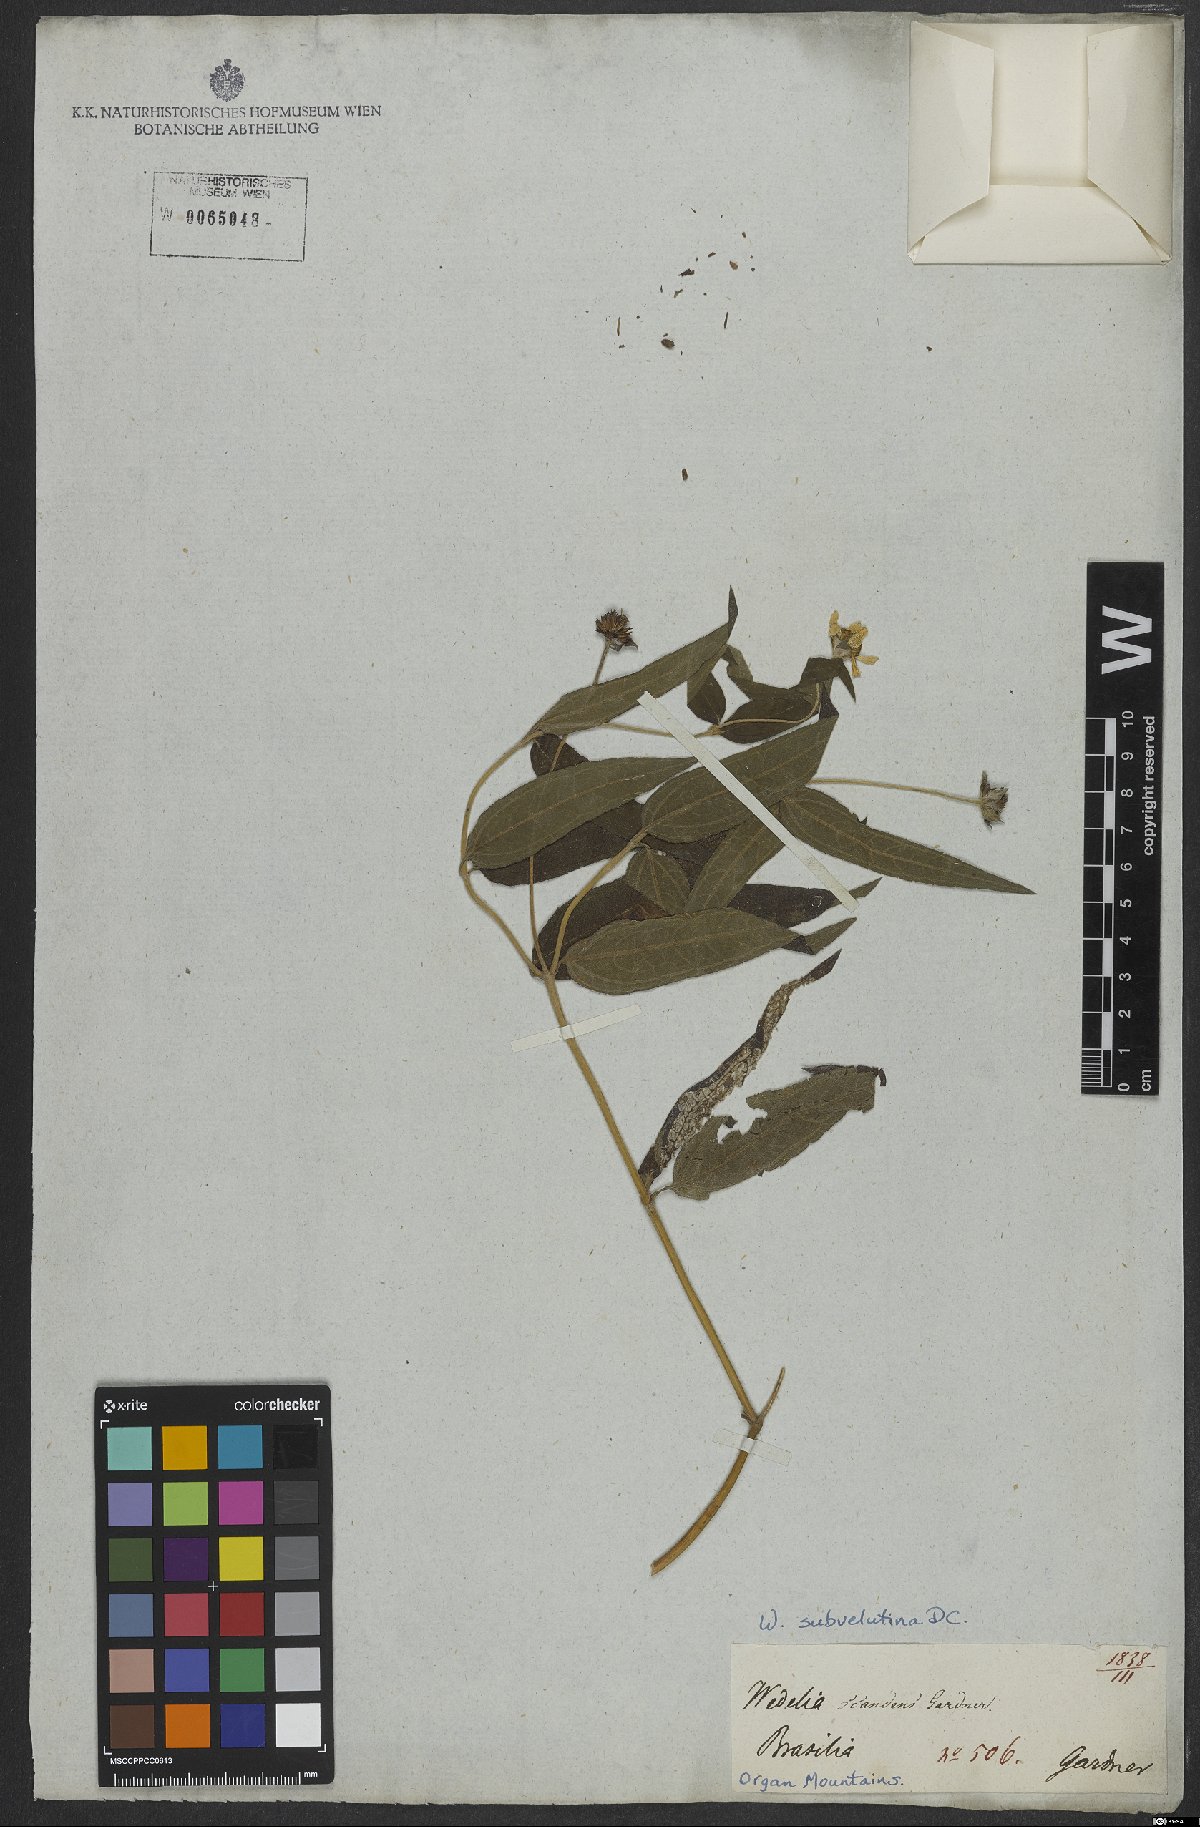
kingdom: Plantae
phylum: Tracheophyta
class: Magnoliopsida
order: Asterales
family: Asteraceae
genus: Wedelia
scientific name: Wedelia subvelutina
